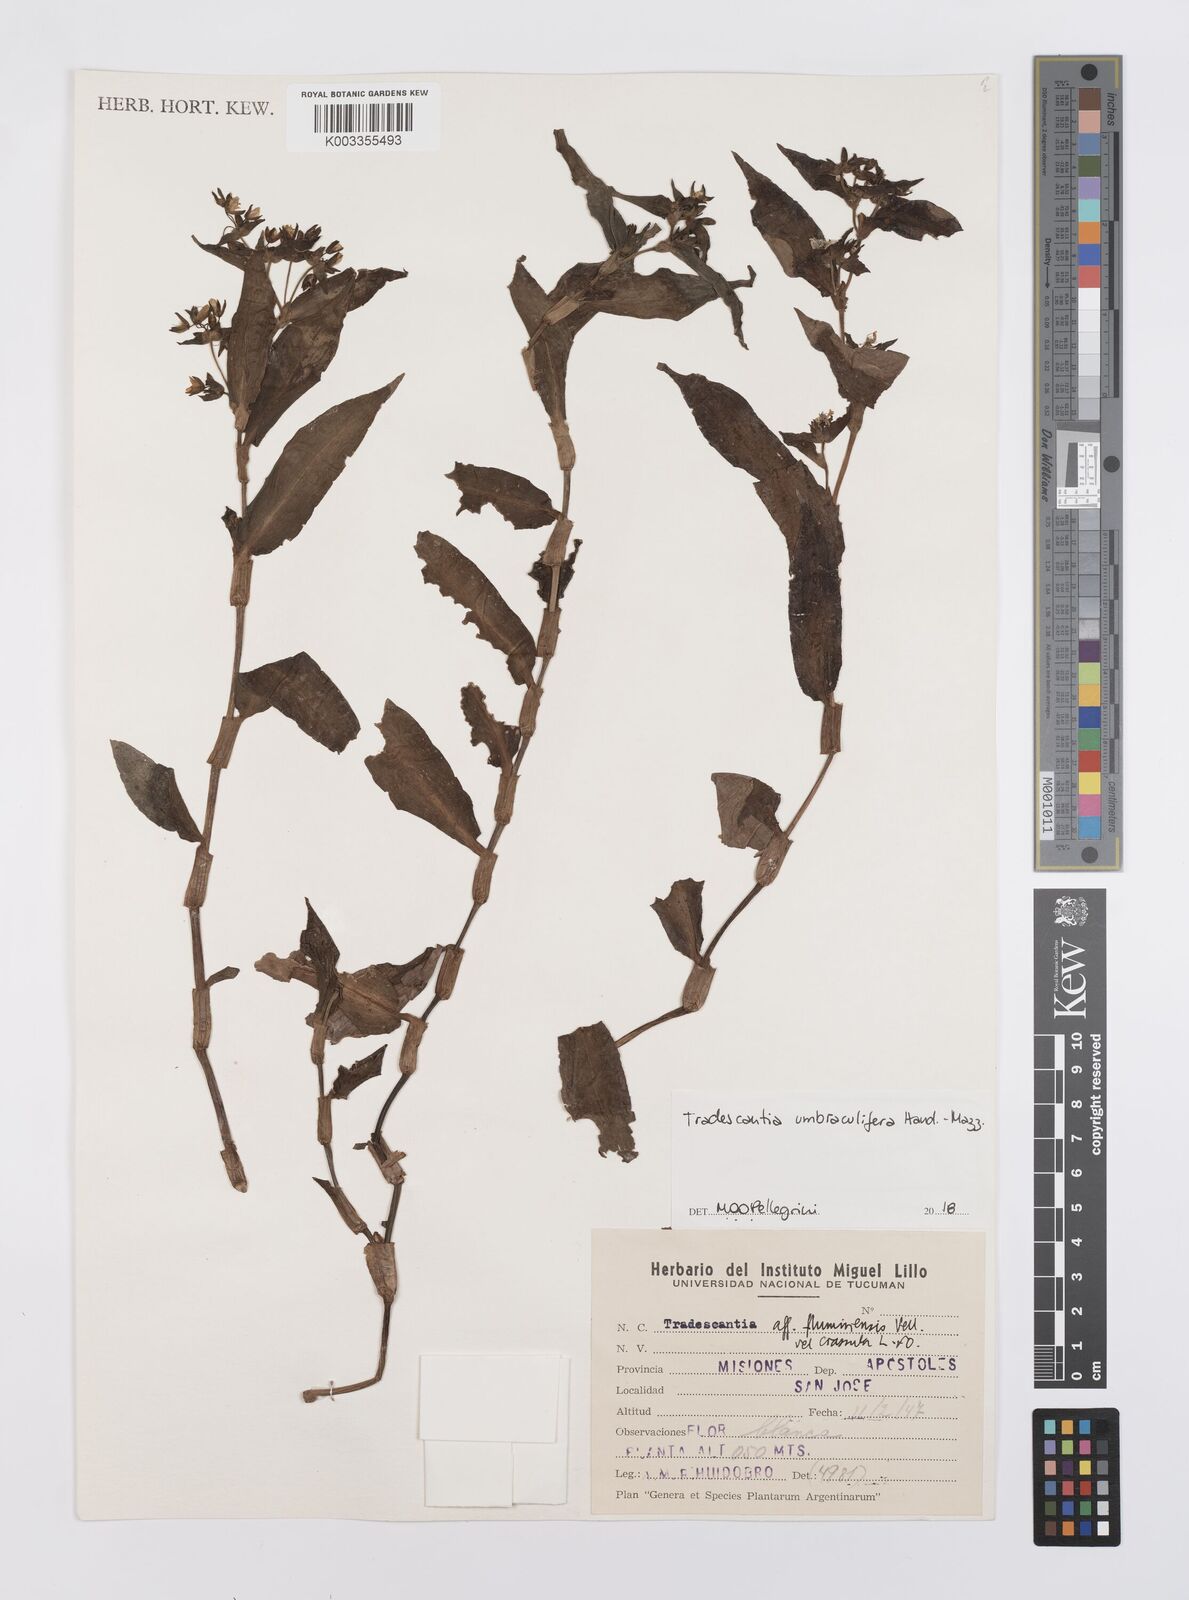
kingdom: Plantae
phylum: Tracheophyta
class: Liliopsida
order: Commelinales
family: Commelinaceae
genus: Tradescantia
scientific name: Tradescantia umbraculifera
